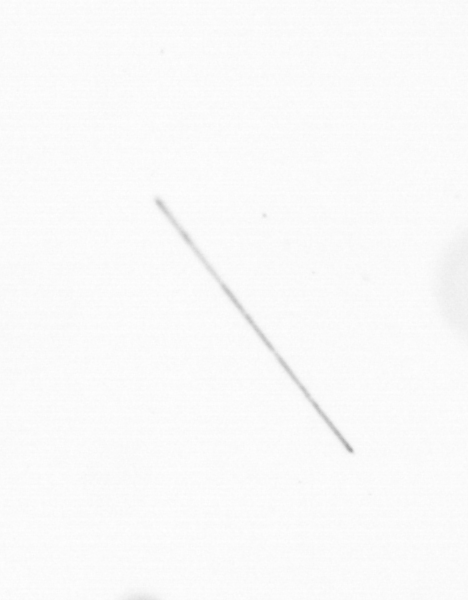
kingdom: Chromista
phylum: Ochrophyta
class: Bacillariophyceae
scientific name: Bacillariophyceae
